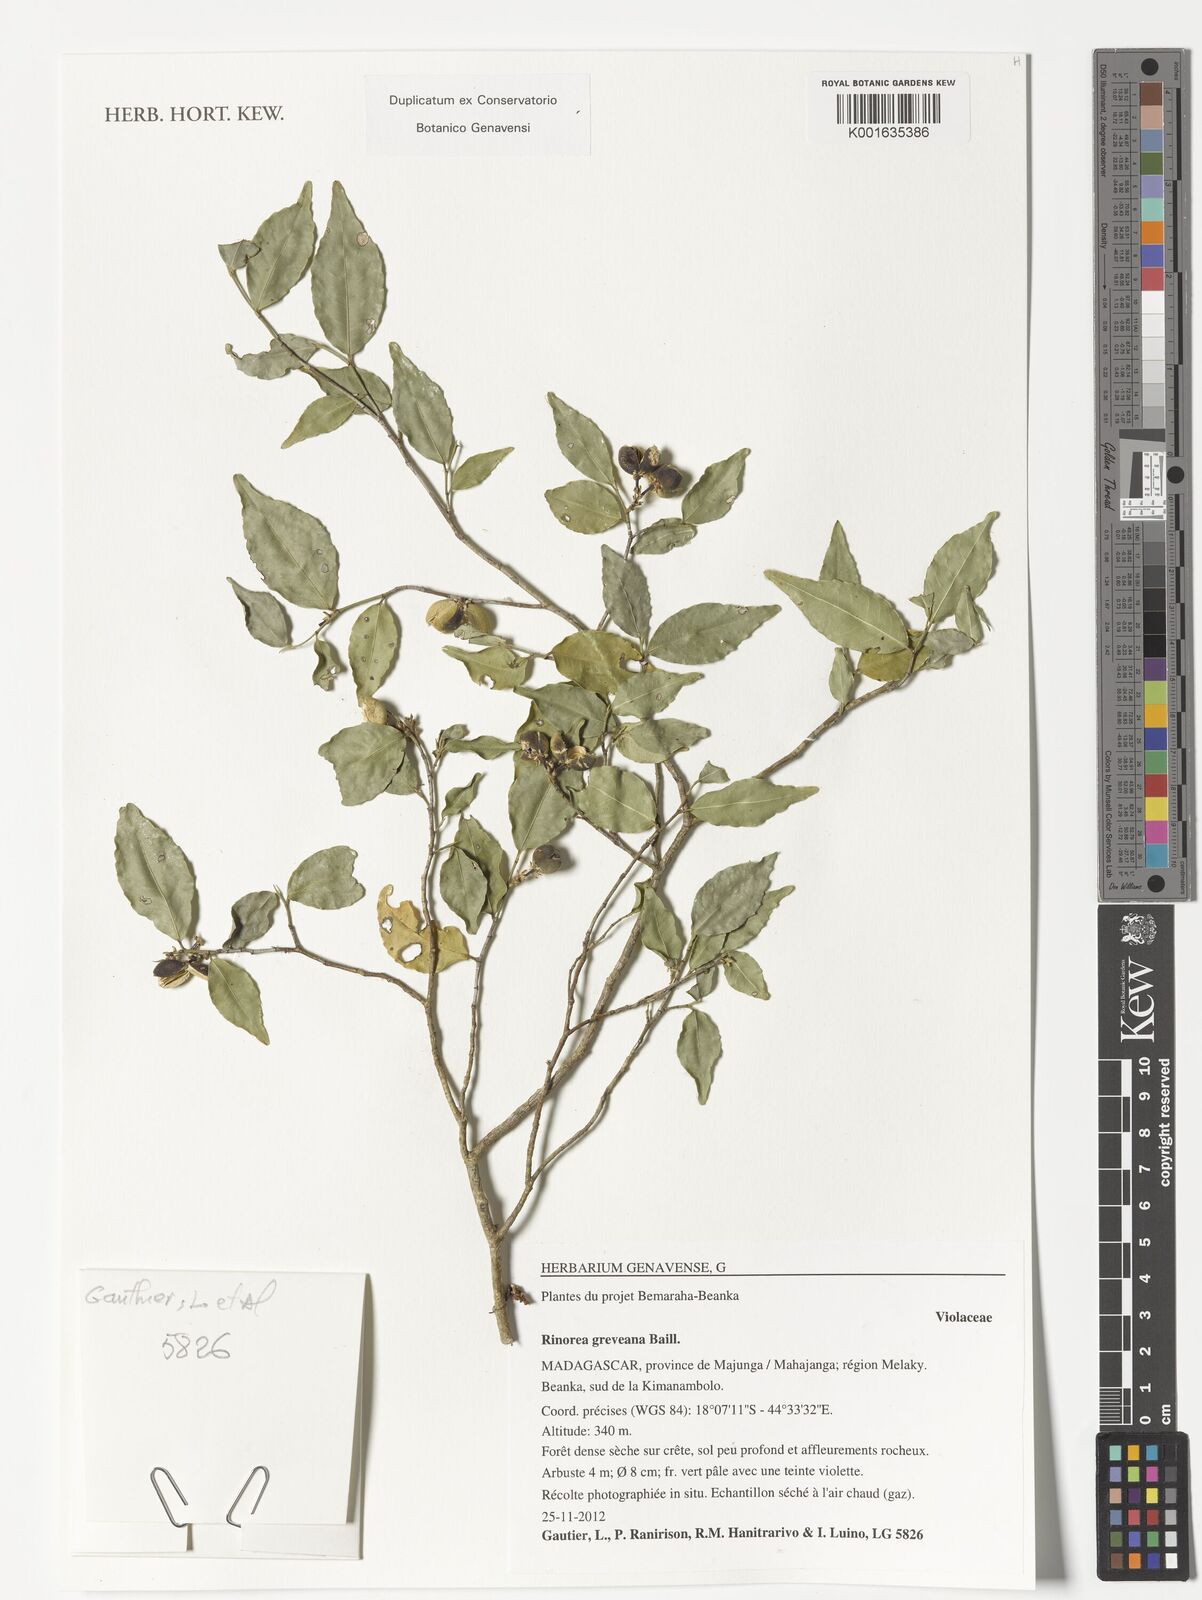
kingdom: Plantae
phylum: Tracheophyta
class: Magnoliopsida
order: Malpighiales
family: Violaceae
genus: Rinorea
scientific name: Rinorea greveana
